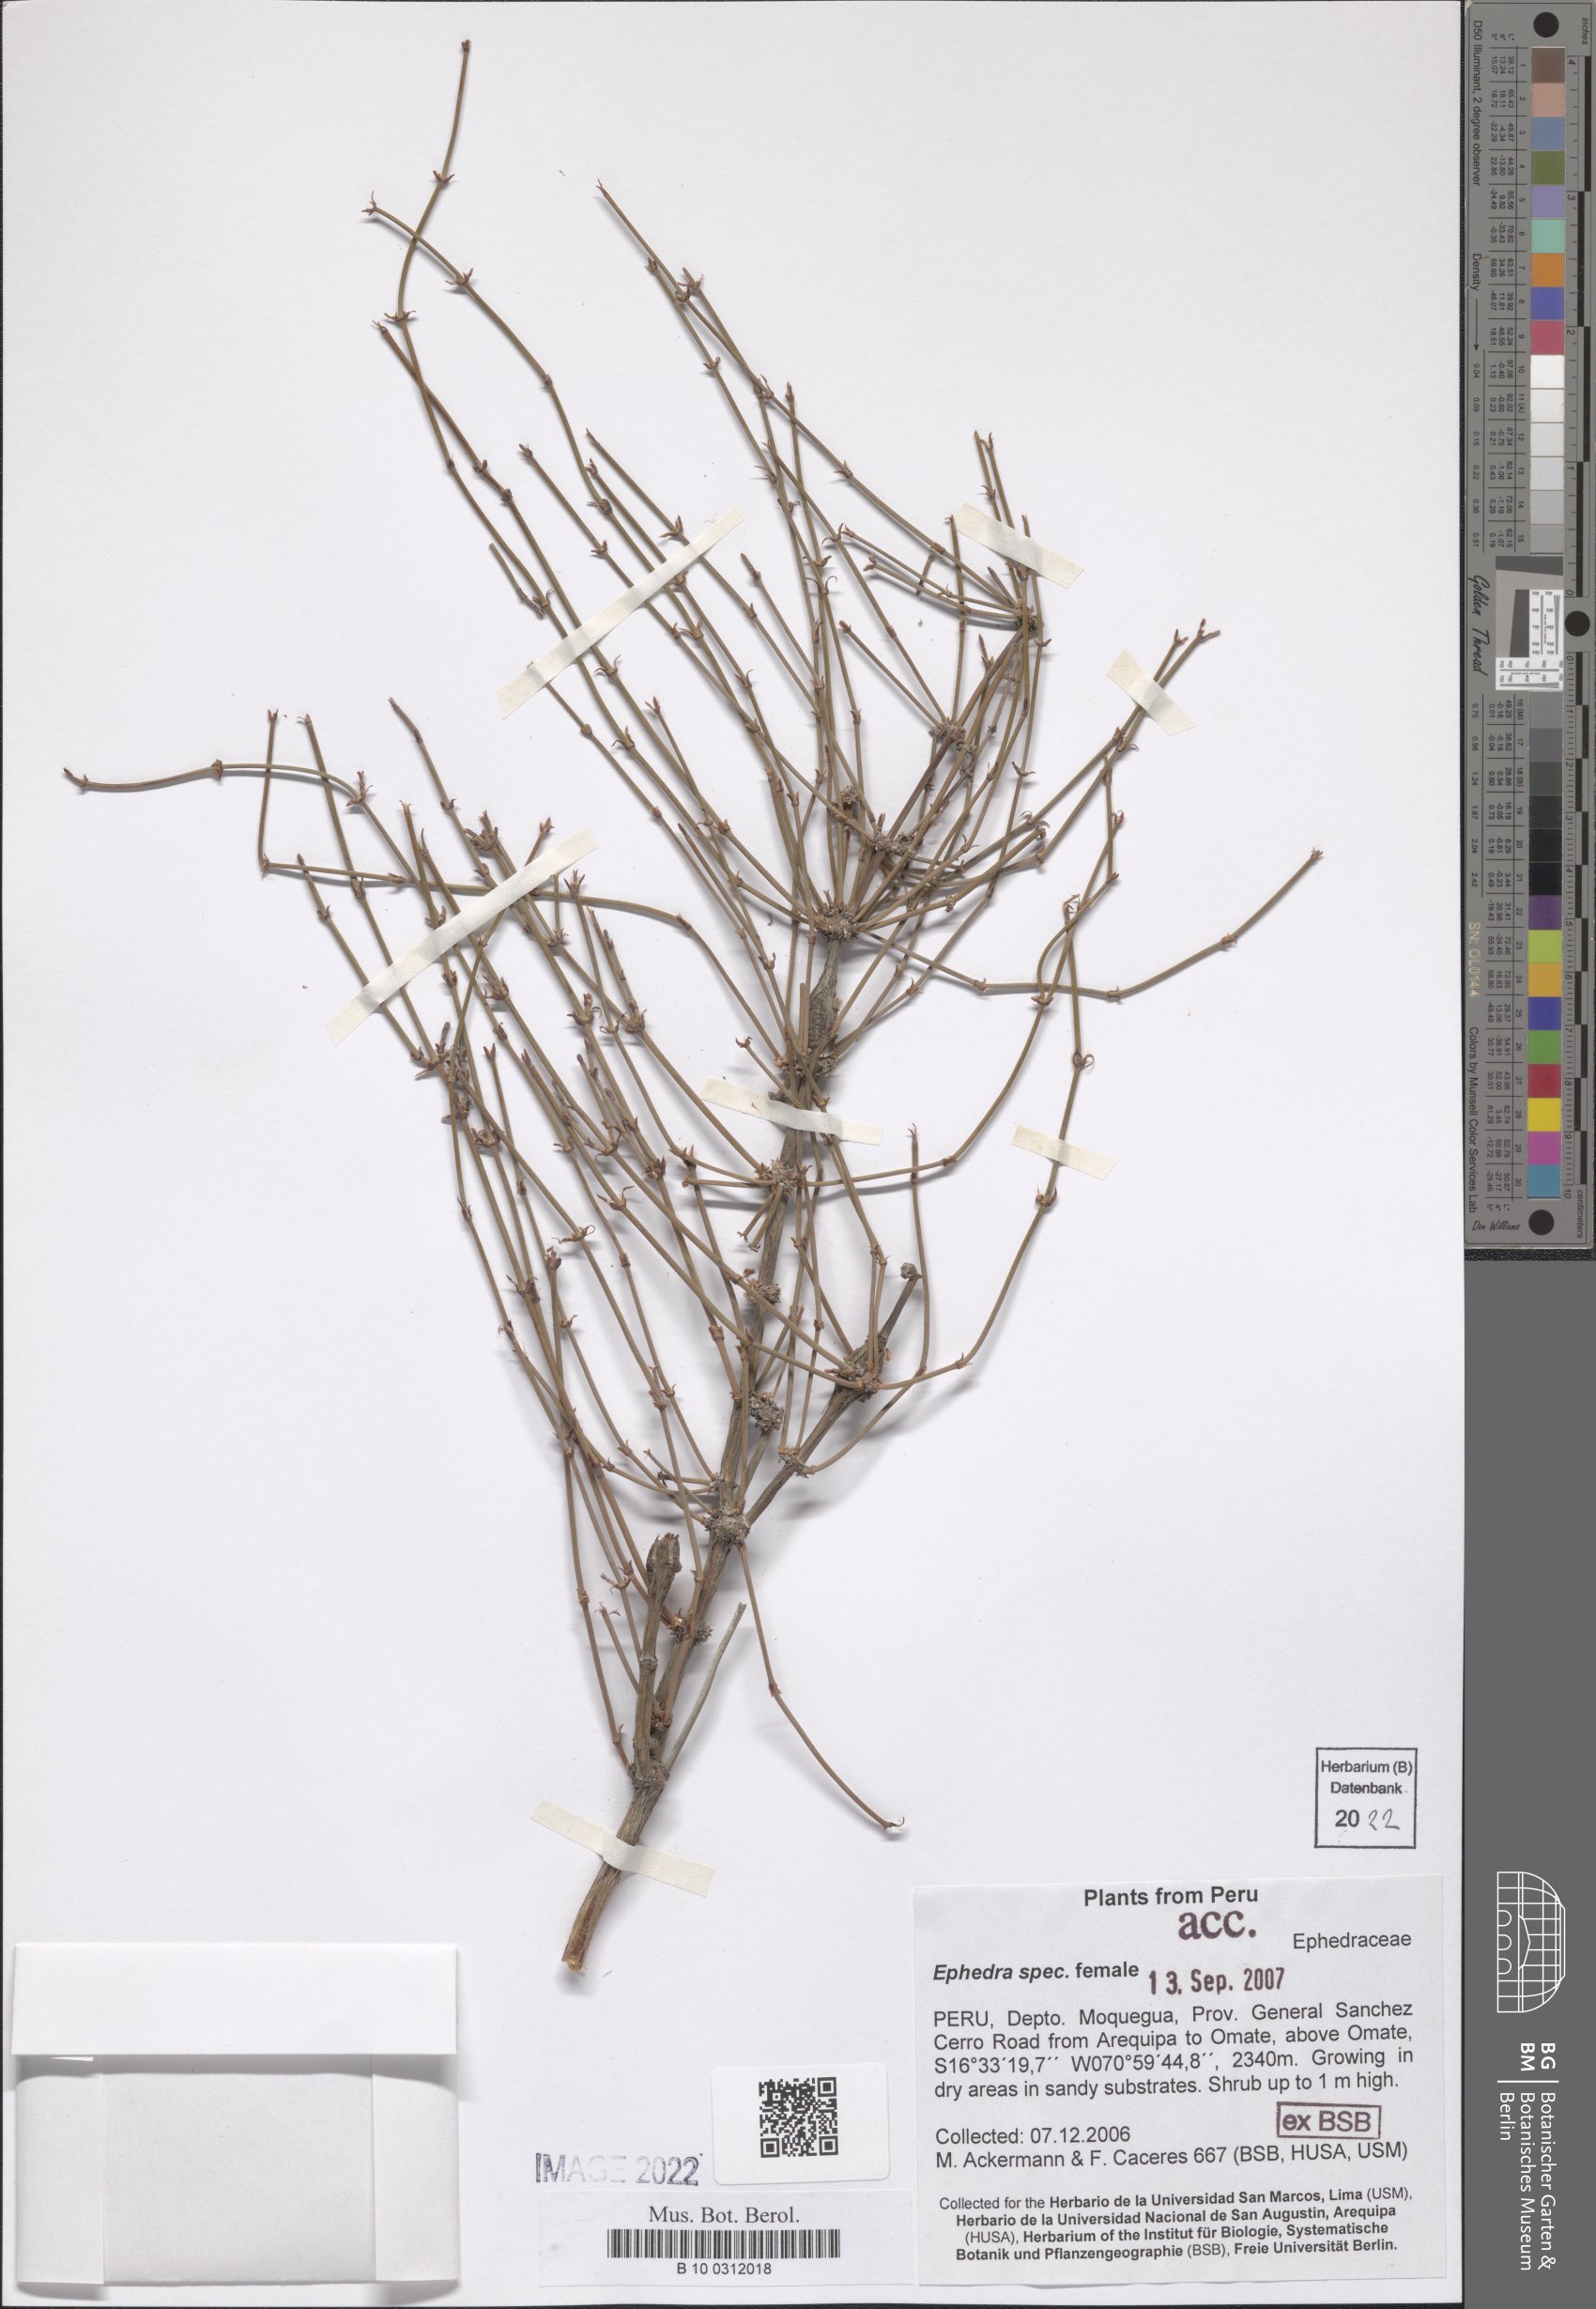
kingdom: Plantae
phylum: Tracheophyta
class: Gnetopsida
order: Ephedrales
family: Ephedraceae
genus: Ephedra
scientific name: Ephedra
